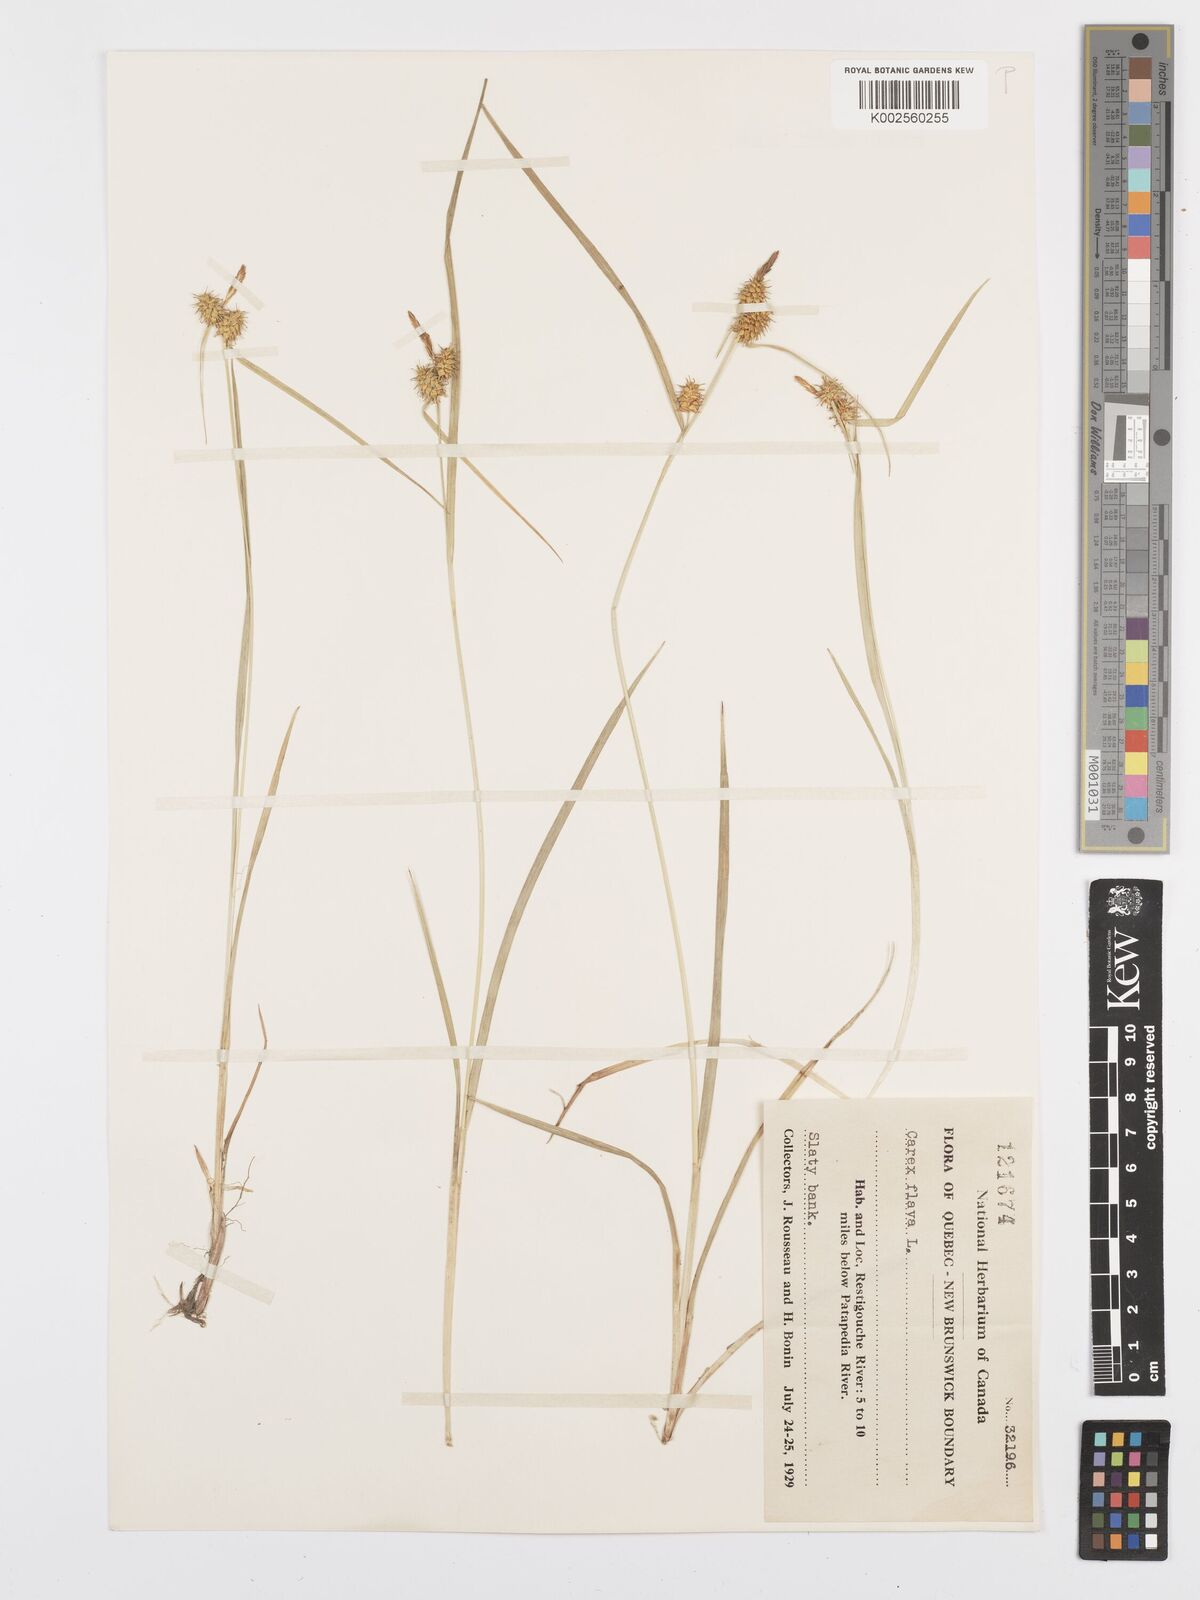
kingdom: Plantae
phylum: Tracheophyta
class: Liliopsida
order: Poales
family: Cyperaceae
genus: Carex
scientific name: Carex flava
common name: Large yellow-sedge
